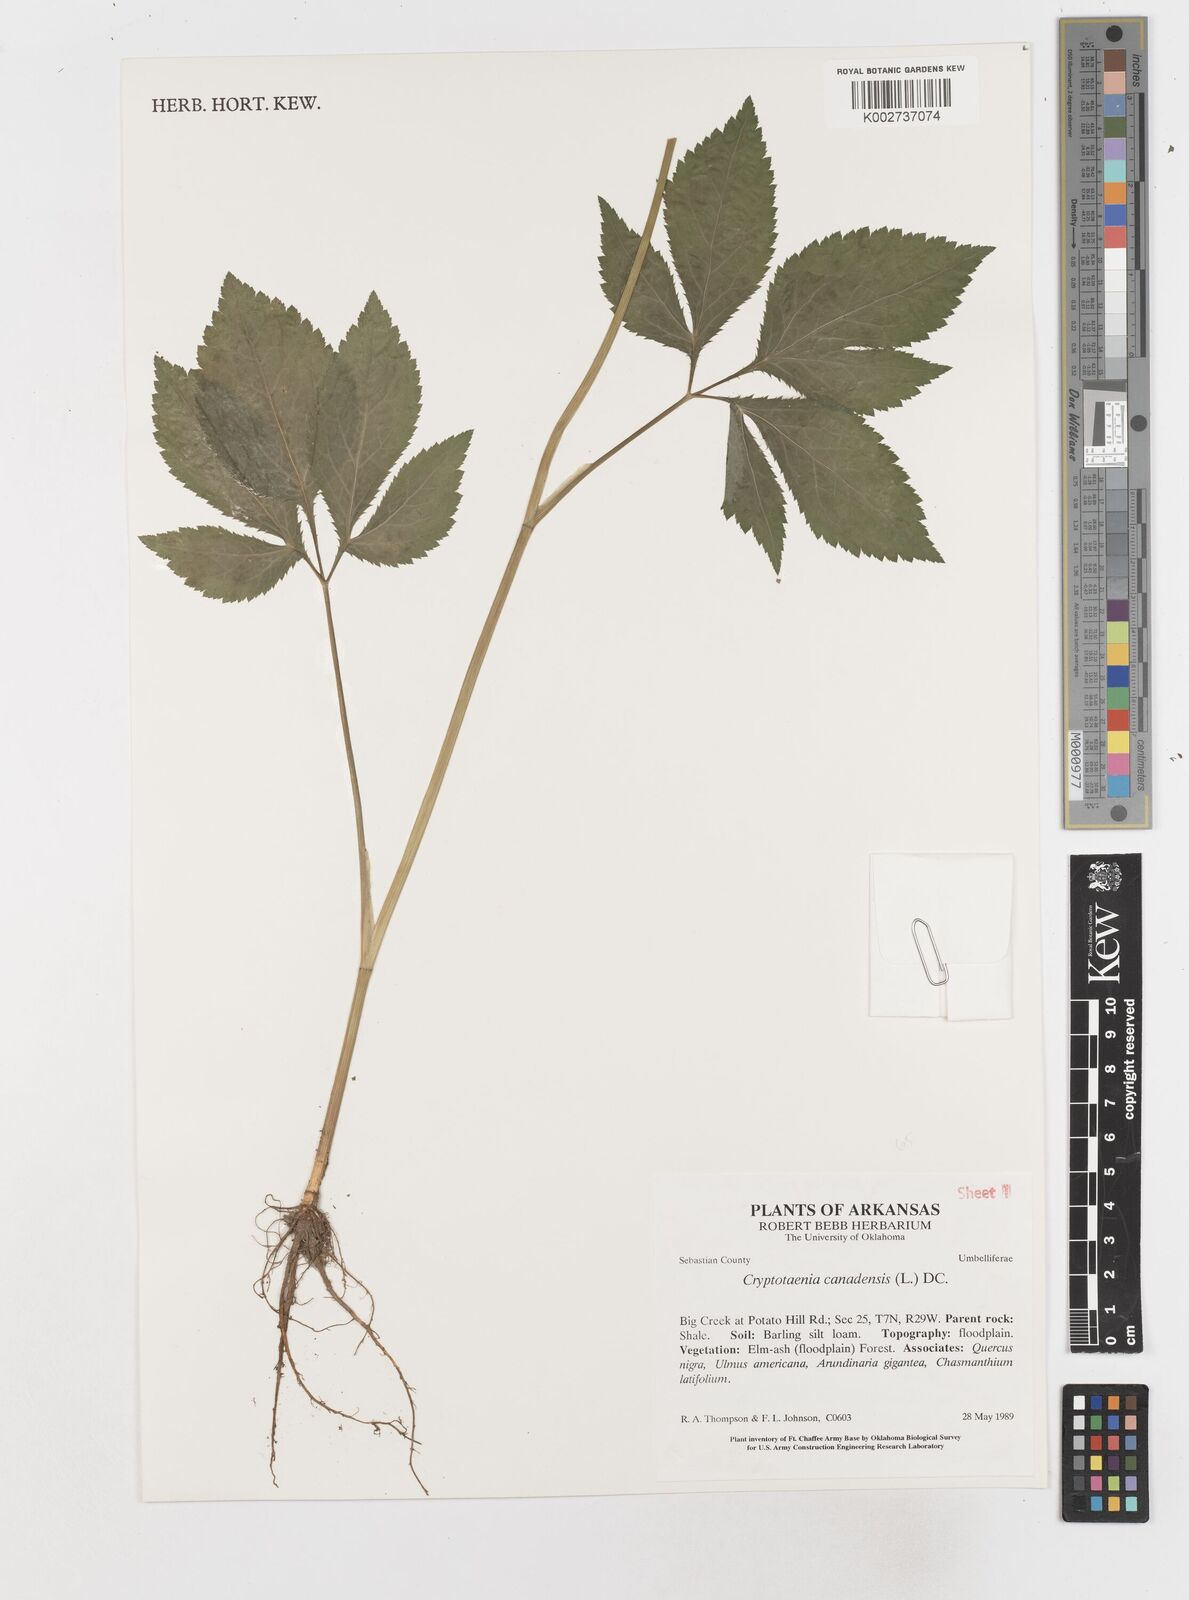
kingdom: Plantae
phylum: Tracheophyta
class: Magnoliopsida
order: Apiales
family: Apiaceae
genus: Cryptotaenia
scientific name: Cryptotaenia canadensis
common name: Honewort
